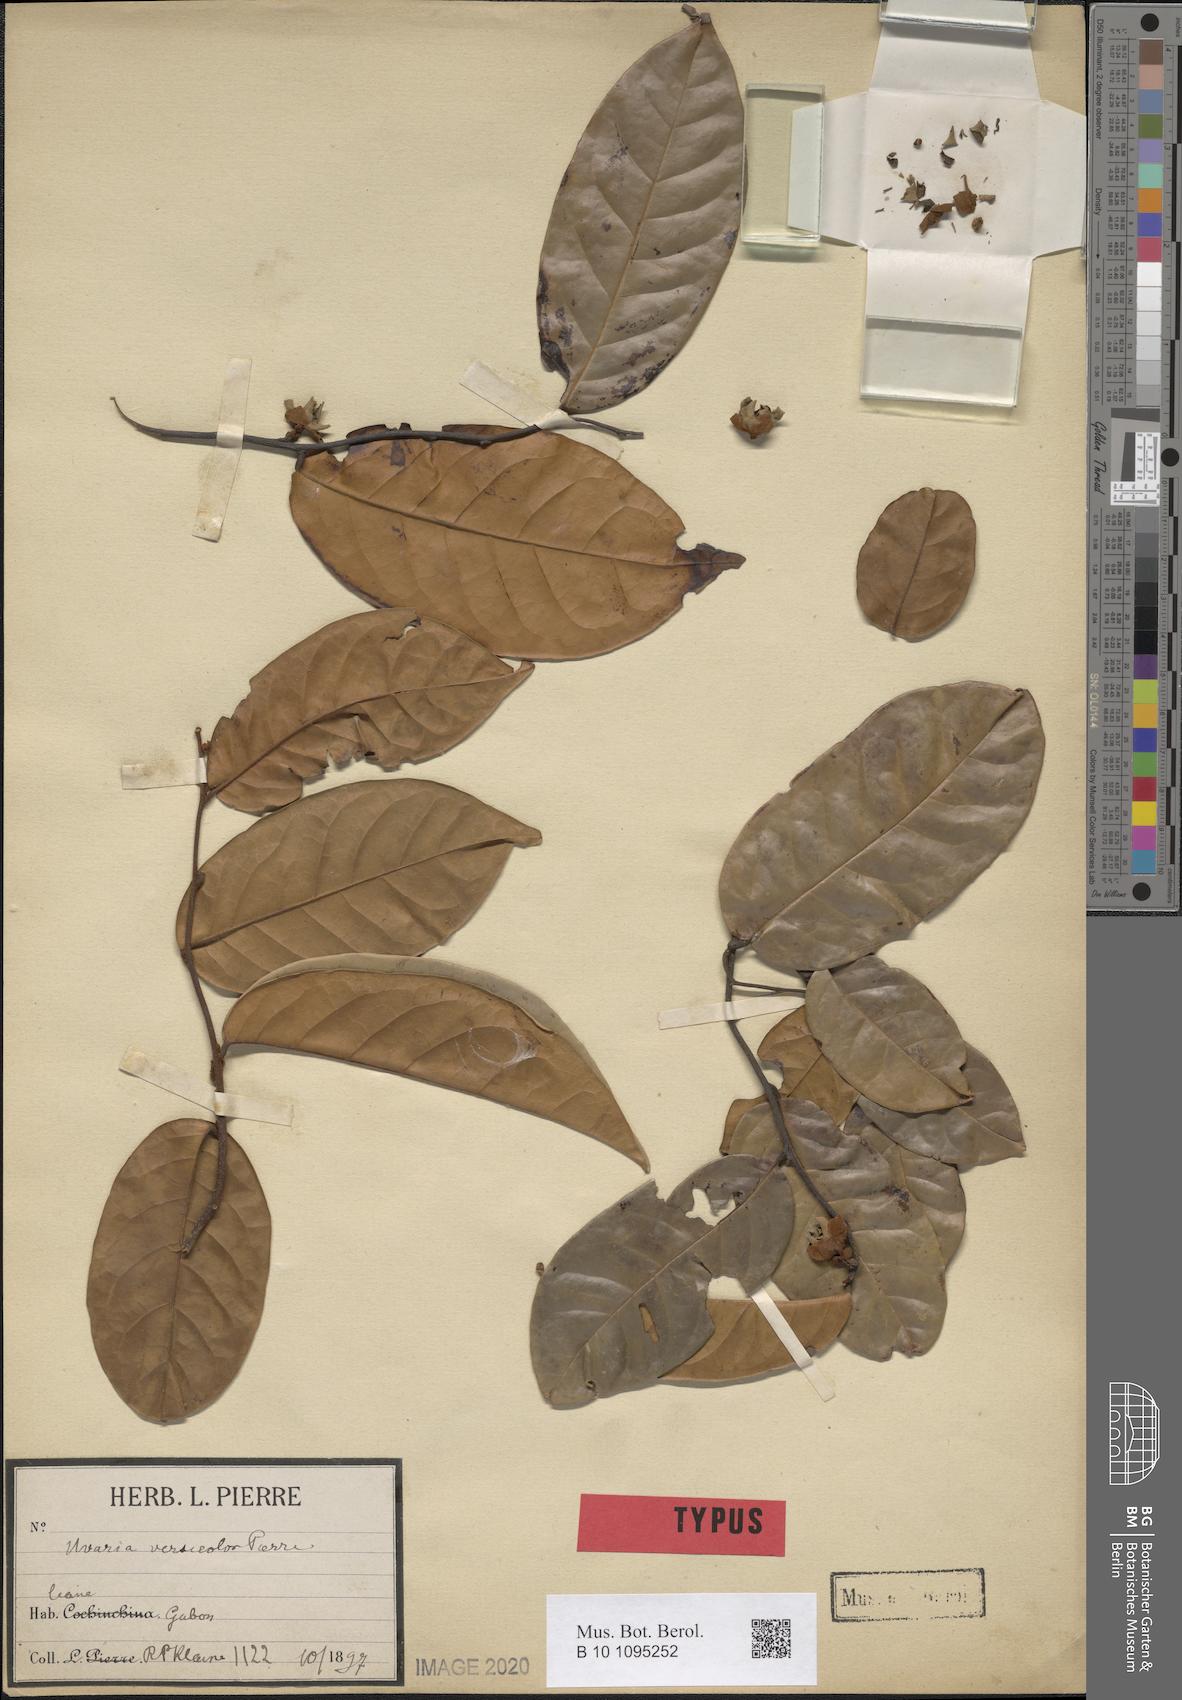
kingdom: Plantae
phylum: Tracheophyta
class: Magnoliopsida
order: Magnoliales
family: Annonaceae
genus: Uvaria
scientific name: Uvaria versicolor
